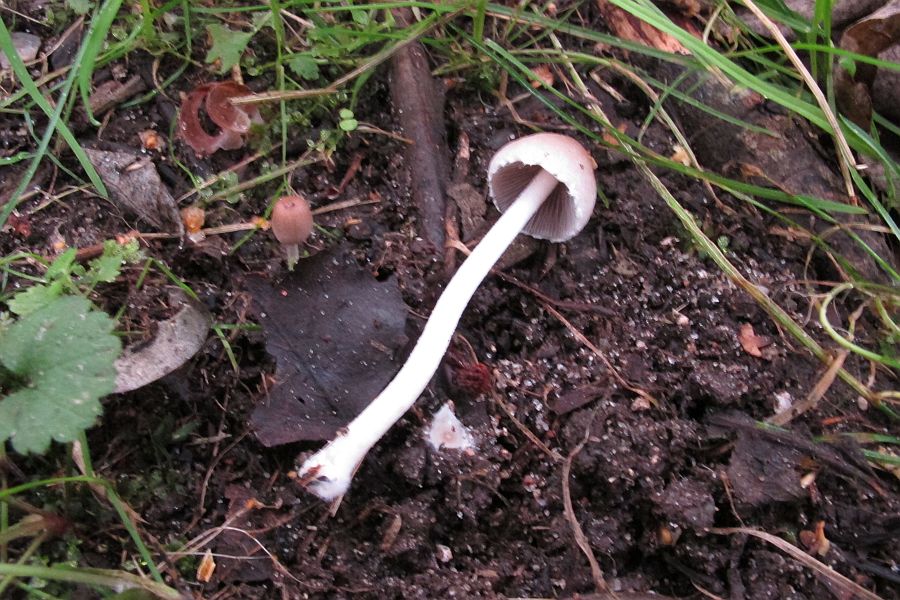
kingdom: Fungi
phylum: Basidiomycota
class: Agaricomycetes
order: Agaricales
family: Psathyrellaceae
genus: Coprinopsis
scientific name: Coprinopsis marcescibilis
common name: ruderat-blækhat
